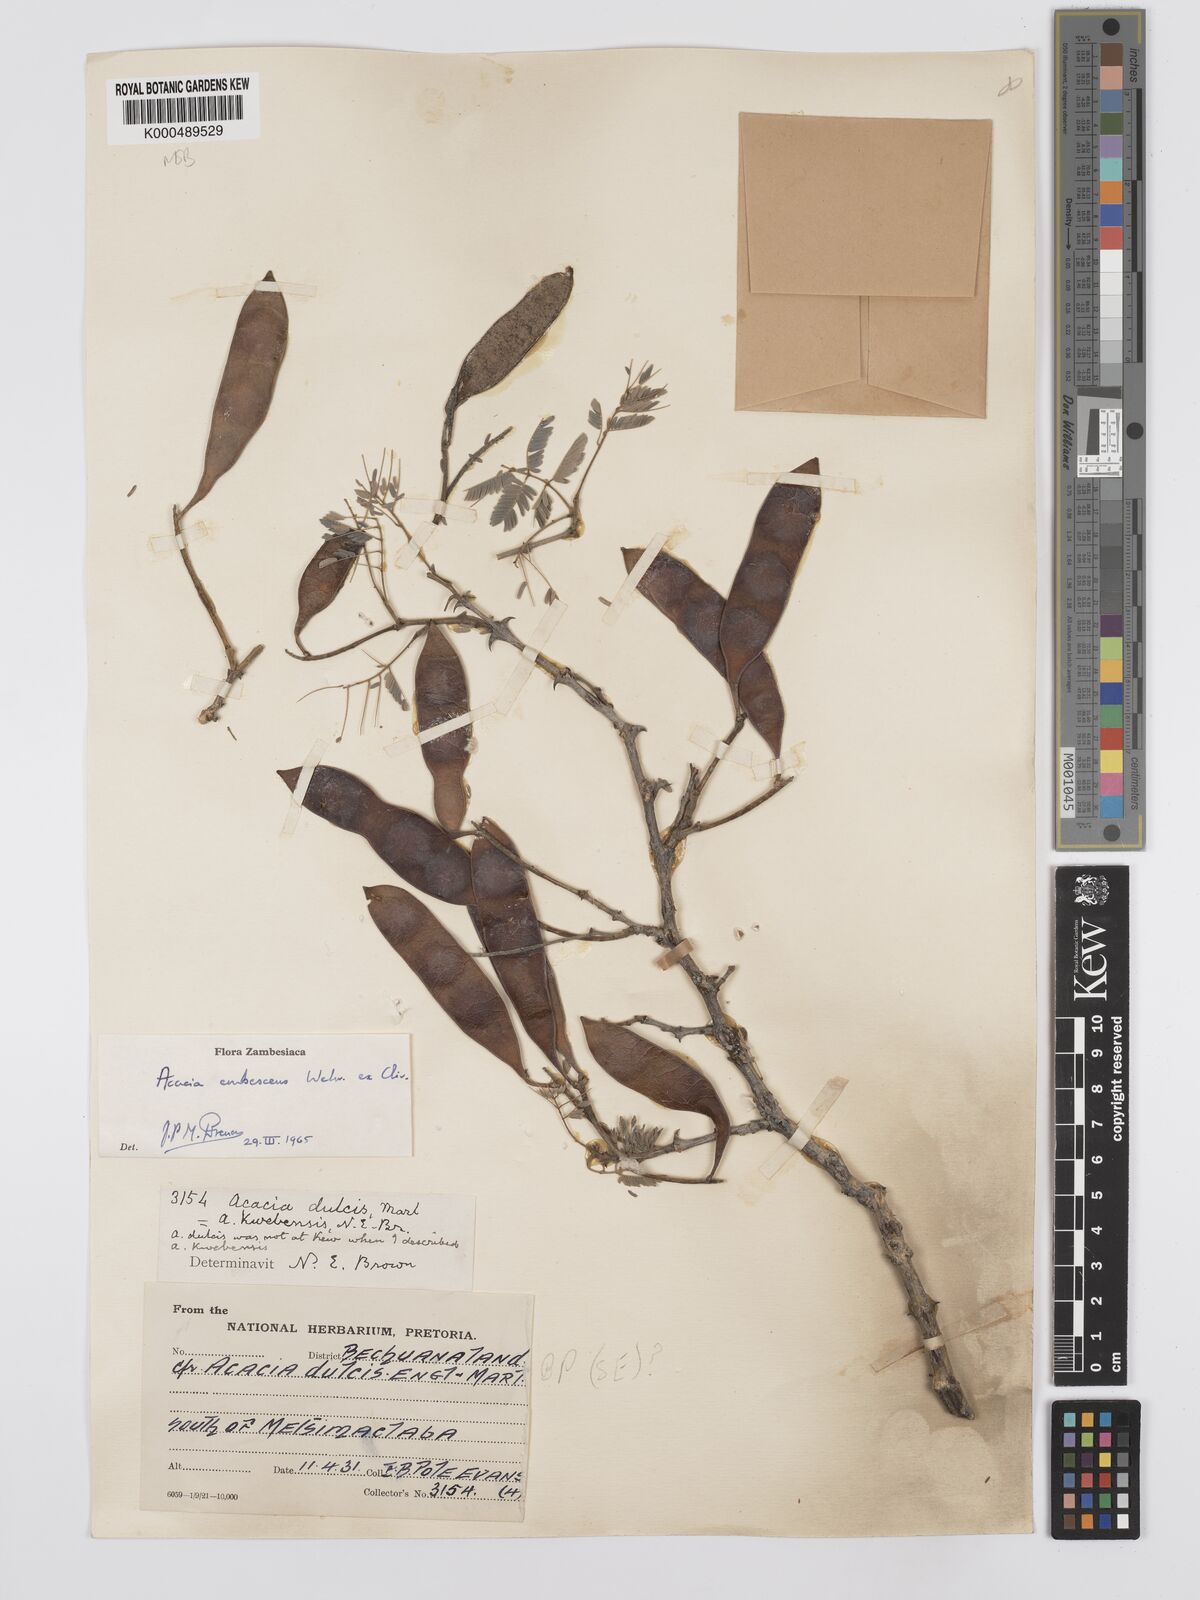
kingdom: Plantae
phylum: Tracheophyta
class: Magnoliopsida
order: Fabales
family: Fabaceae
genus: Senegalia
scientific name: Senegalia erubescens
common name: Bluethorn
